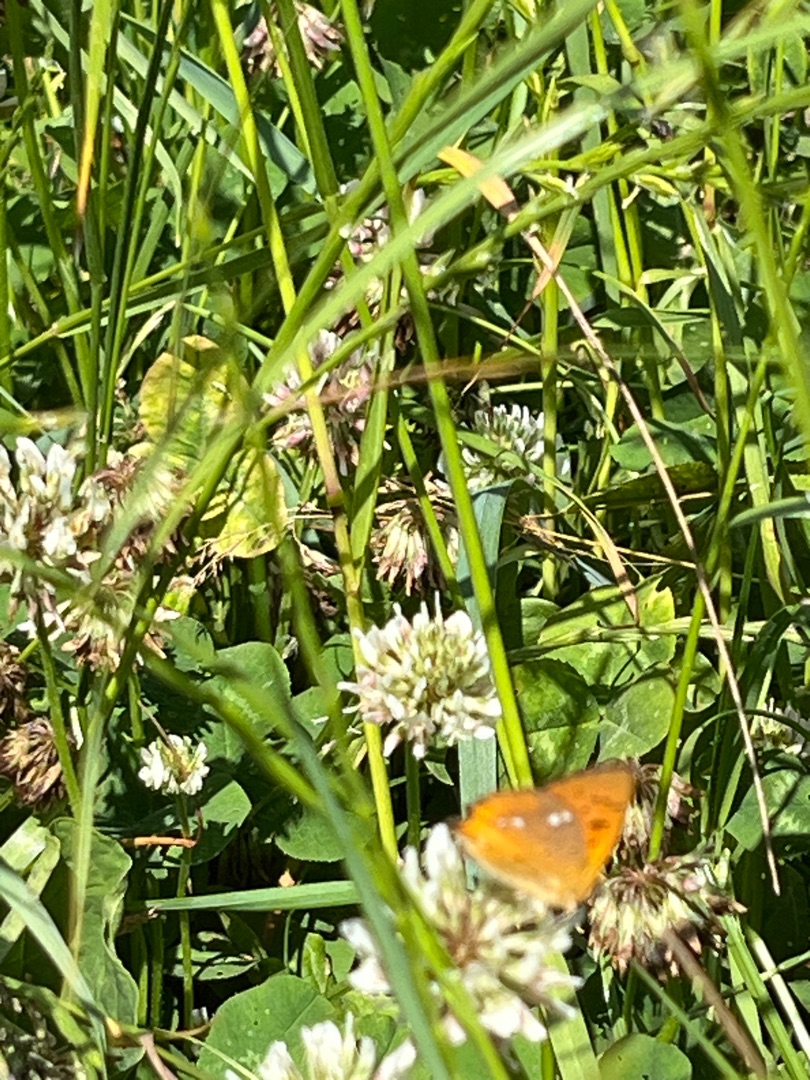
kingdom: Animalia
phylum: Arthropoda
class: Insecta
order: Lepidoptera
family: Lycaenidae
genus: Lycaena
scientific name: Lycaena virgaureae
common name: Dukatsommerfugl
